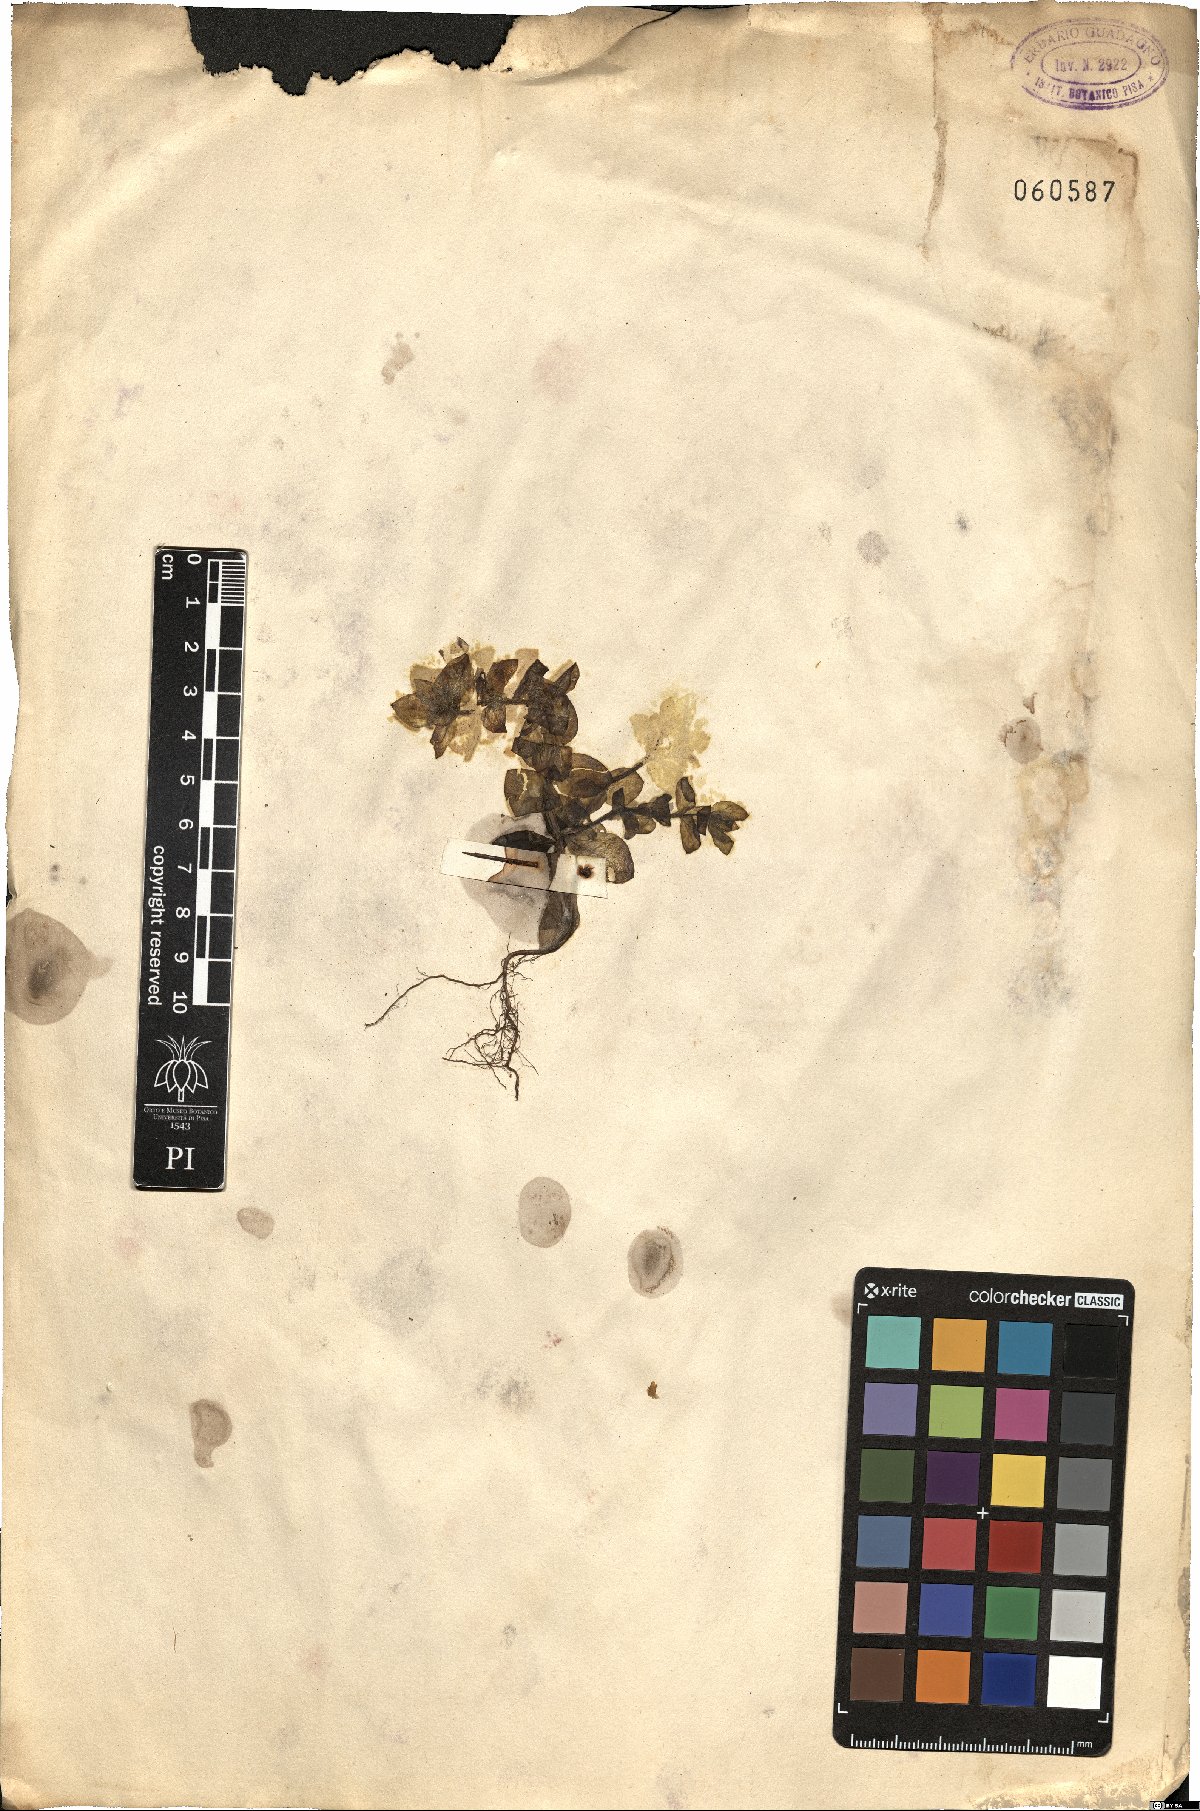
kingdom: Plantae
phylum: Tracheophyta
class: Magnoliopsida
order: Ericales
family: Primulaceae
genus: Lysimachia
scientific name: Lysimachia
